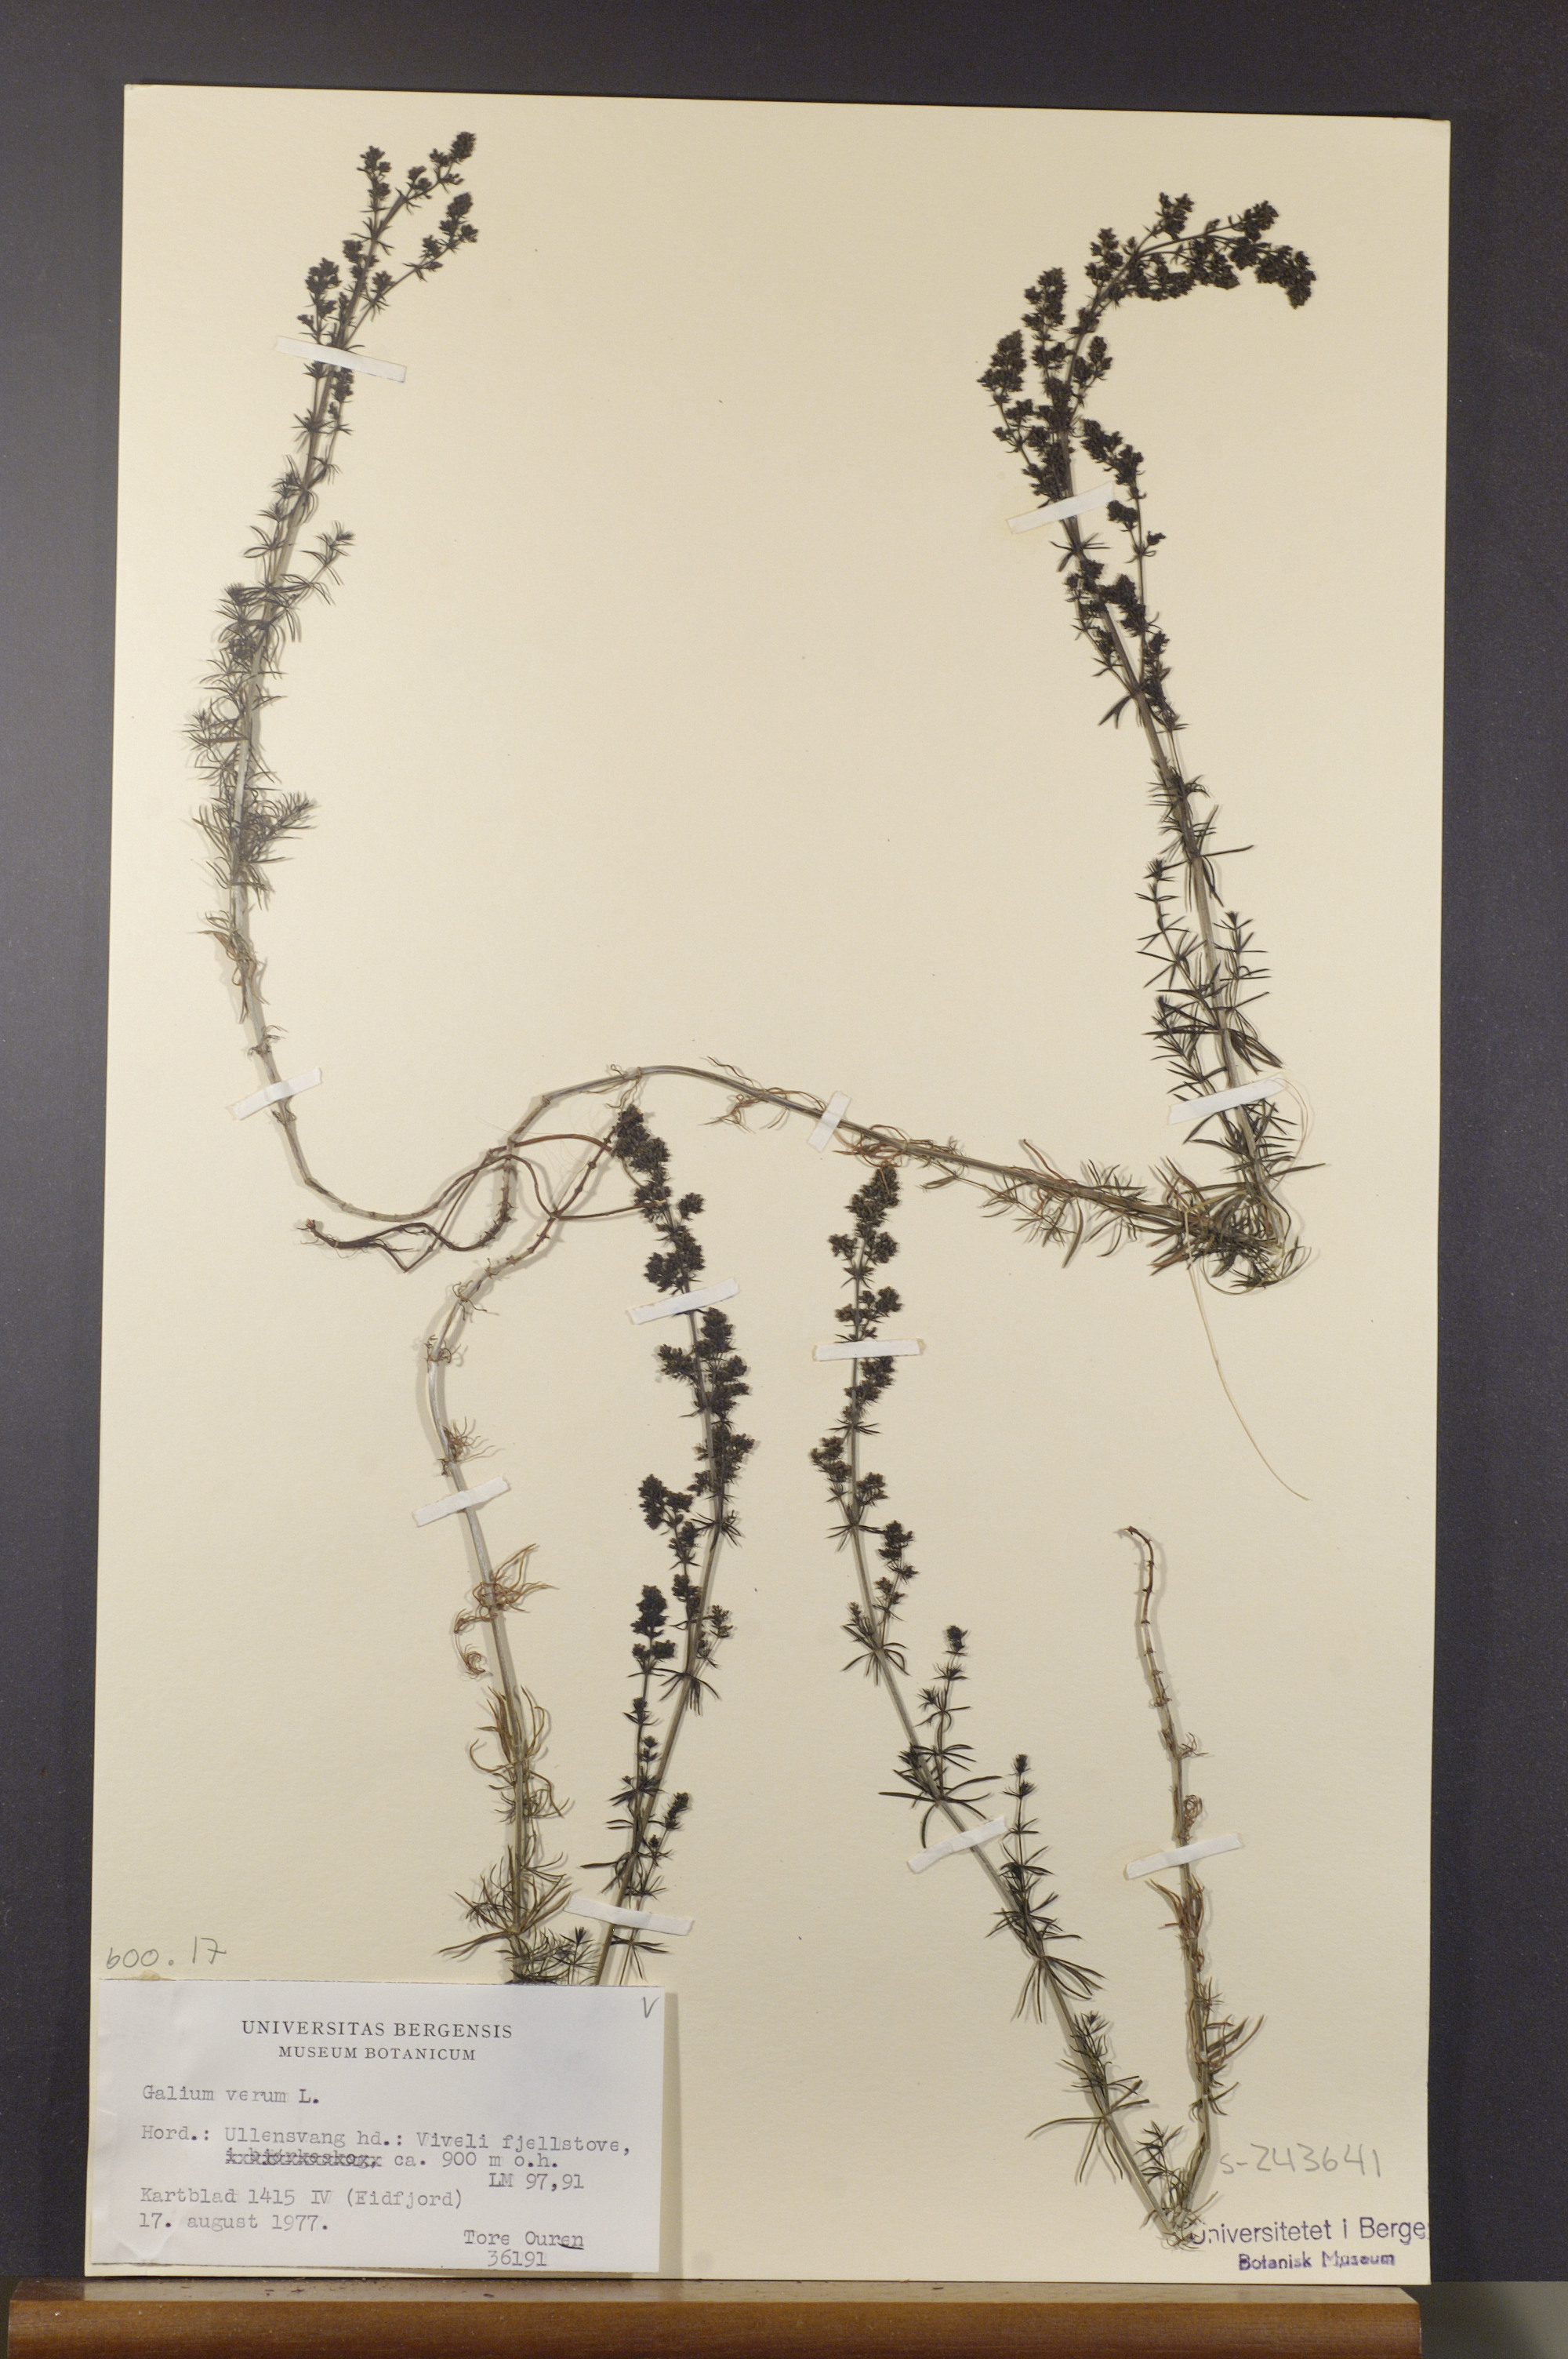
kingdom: Plantae
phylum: Tracheophyta
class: Magnoliopsida
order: Gentianales
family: Rubiaceae
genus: Galium
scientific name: Galium verum
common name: Lady's bedstraw
